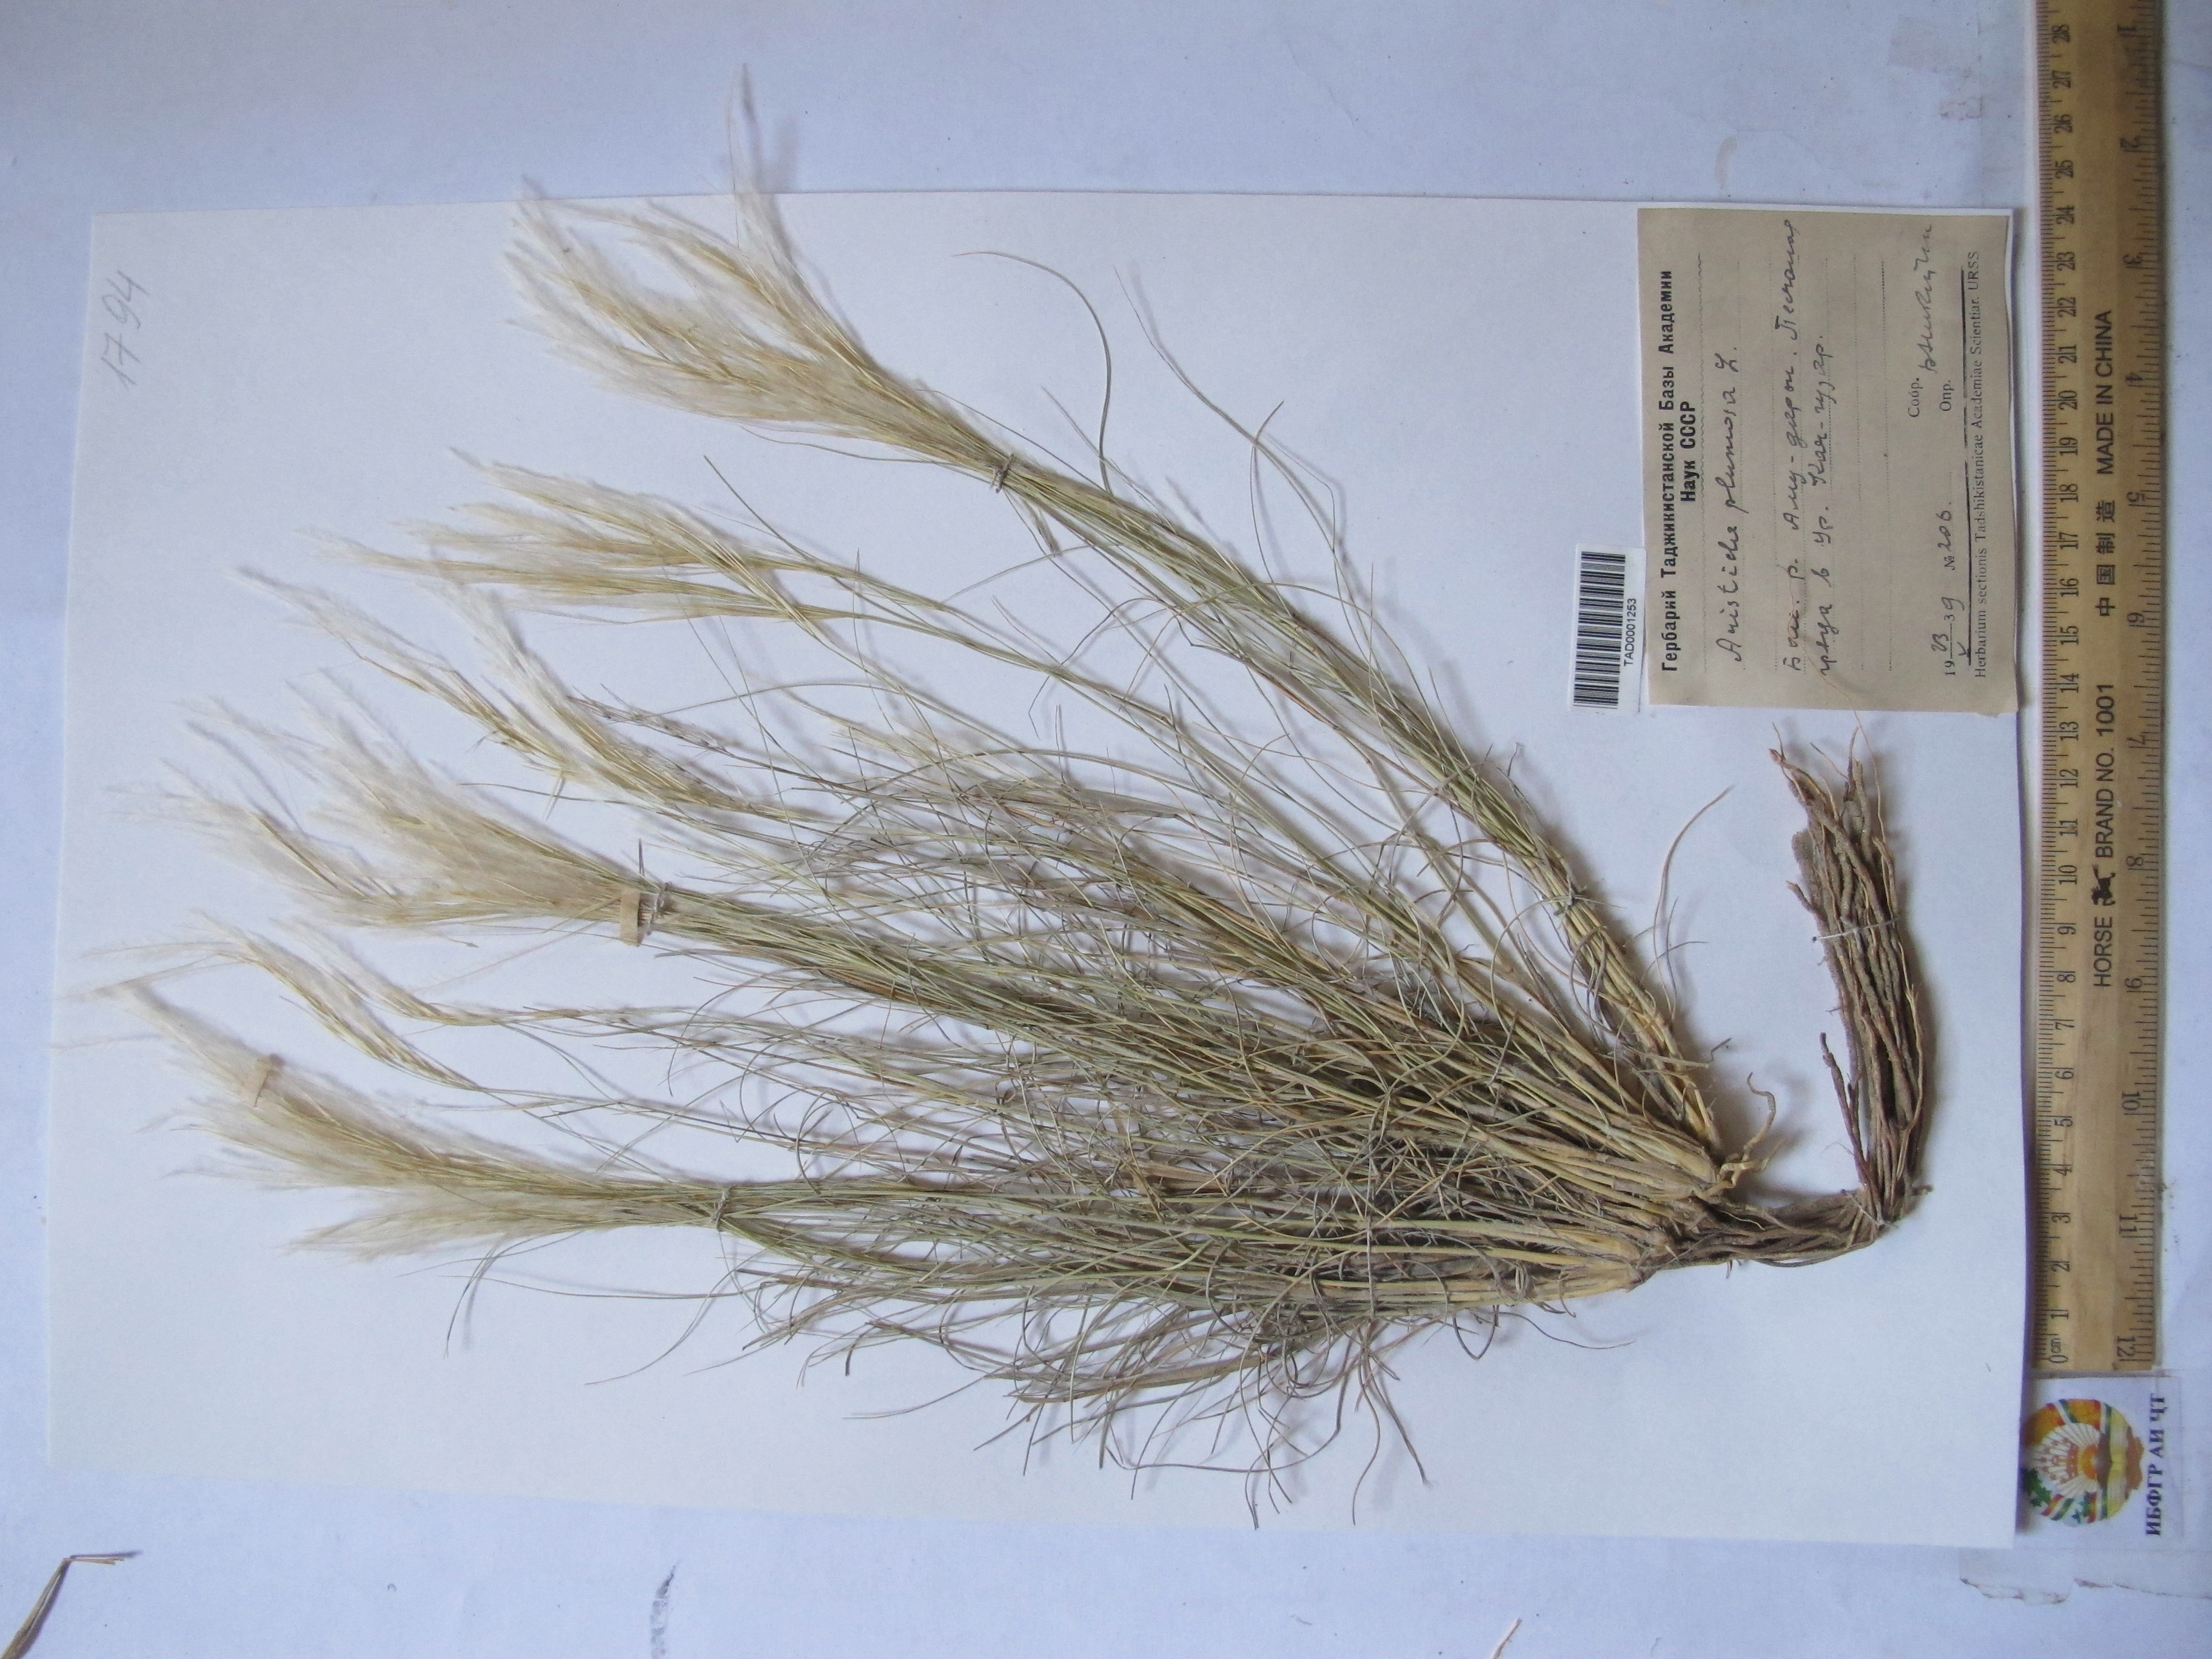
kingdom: Plantae
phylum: Tracheophyta
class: Liliopsida
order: Poales
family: Poaceae
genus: Stipagrostis
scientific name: Stipagrostis plumosa
